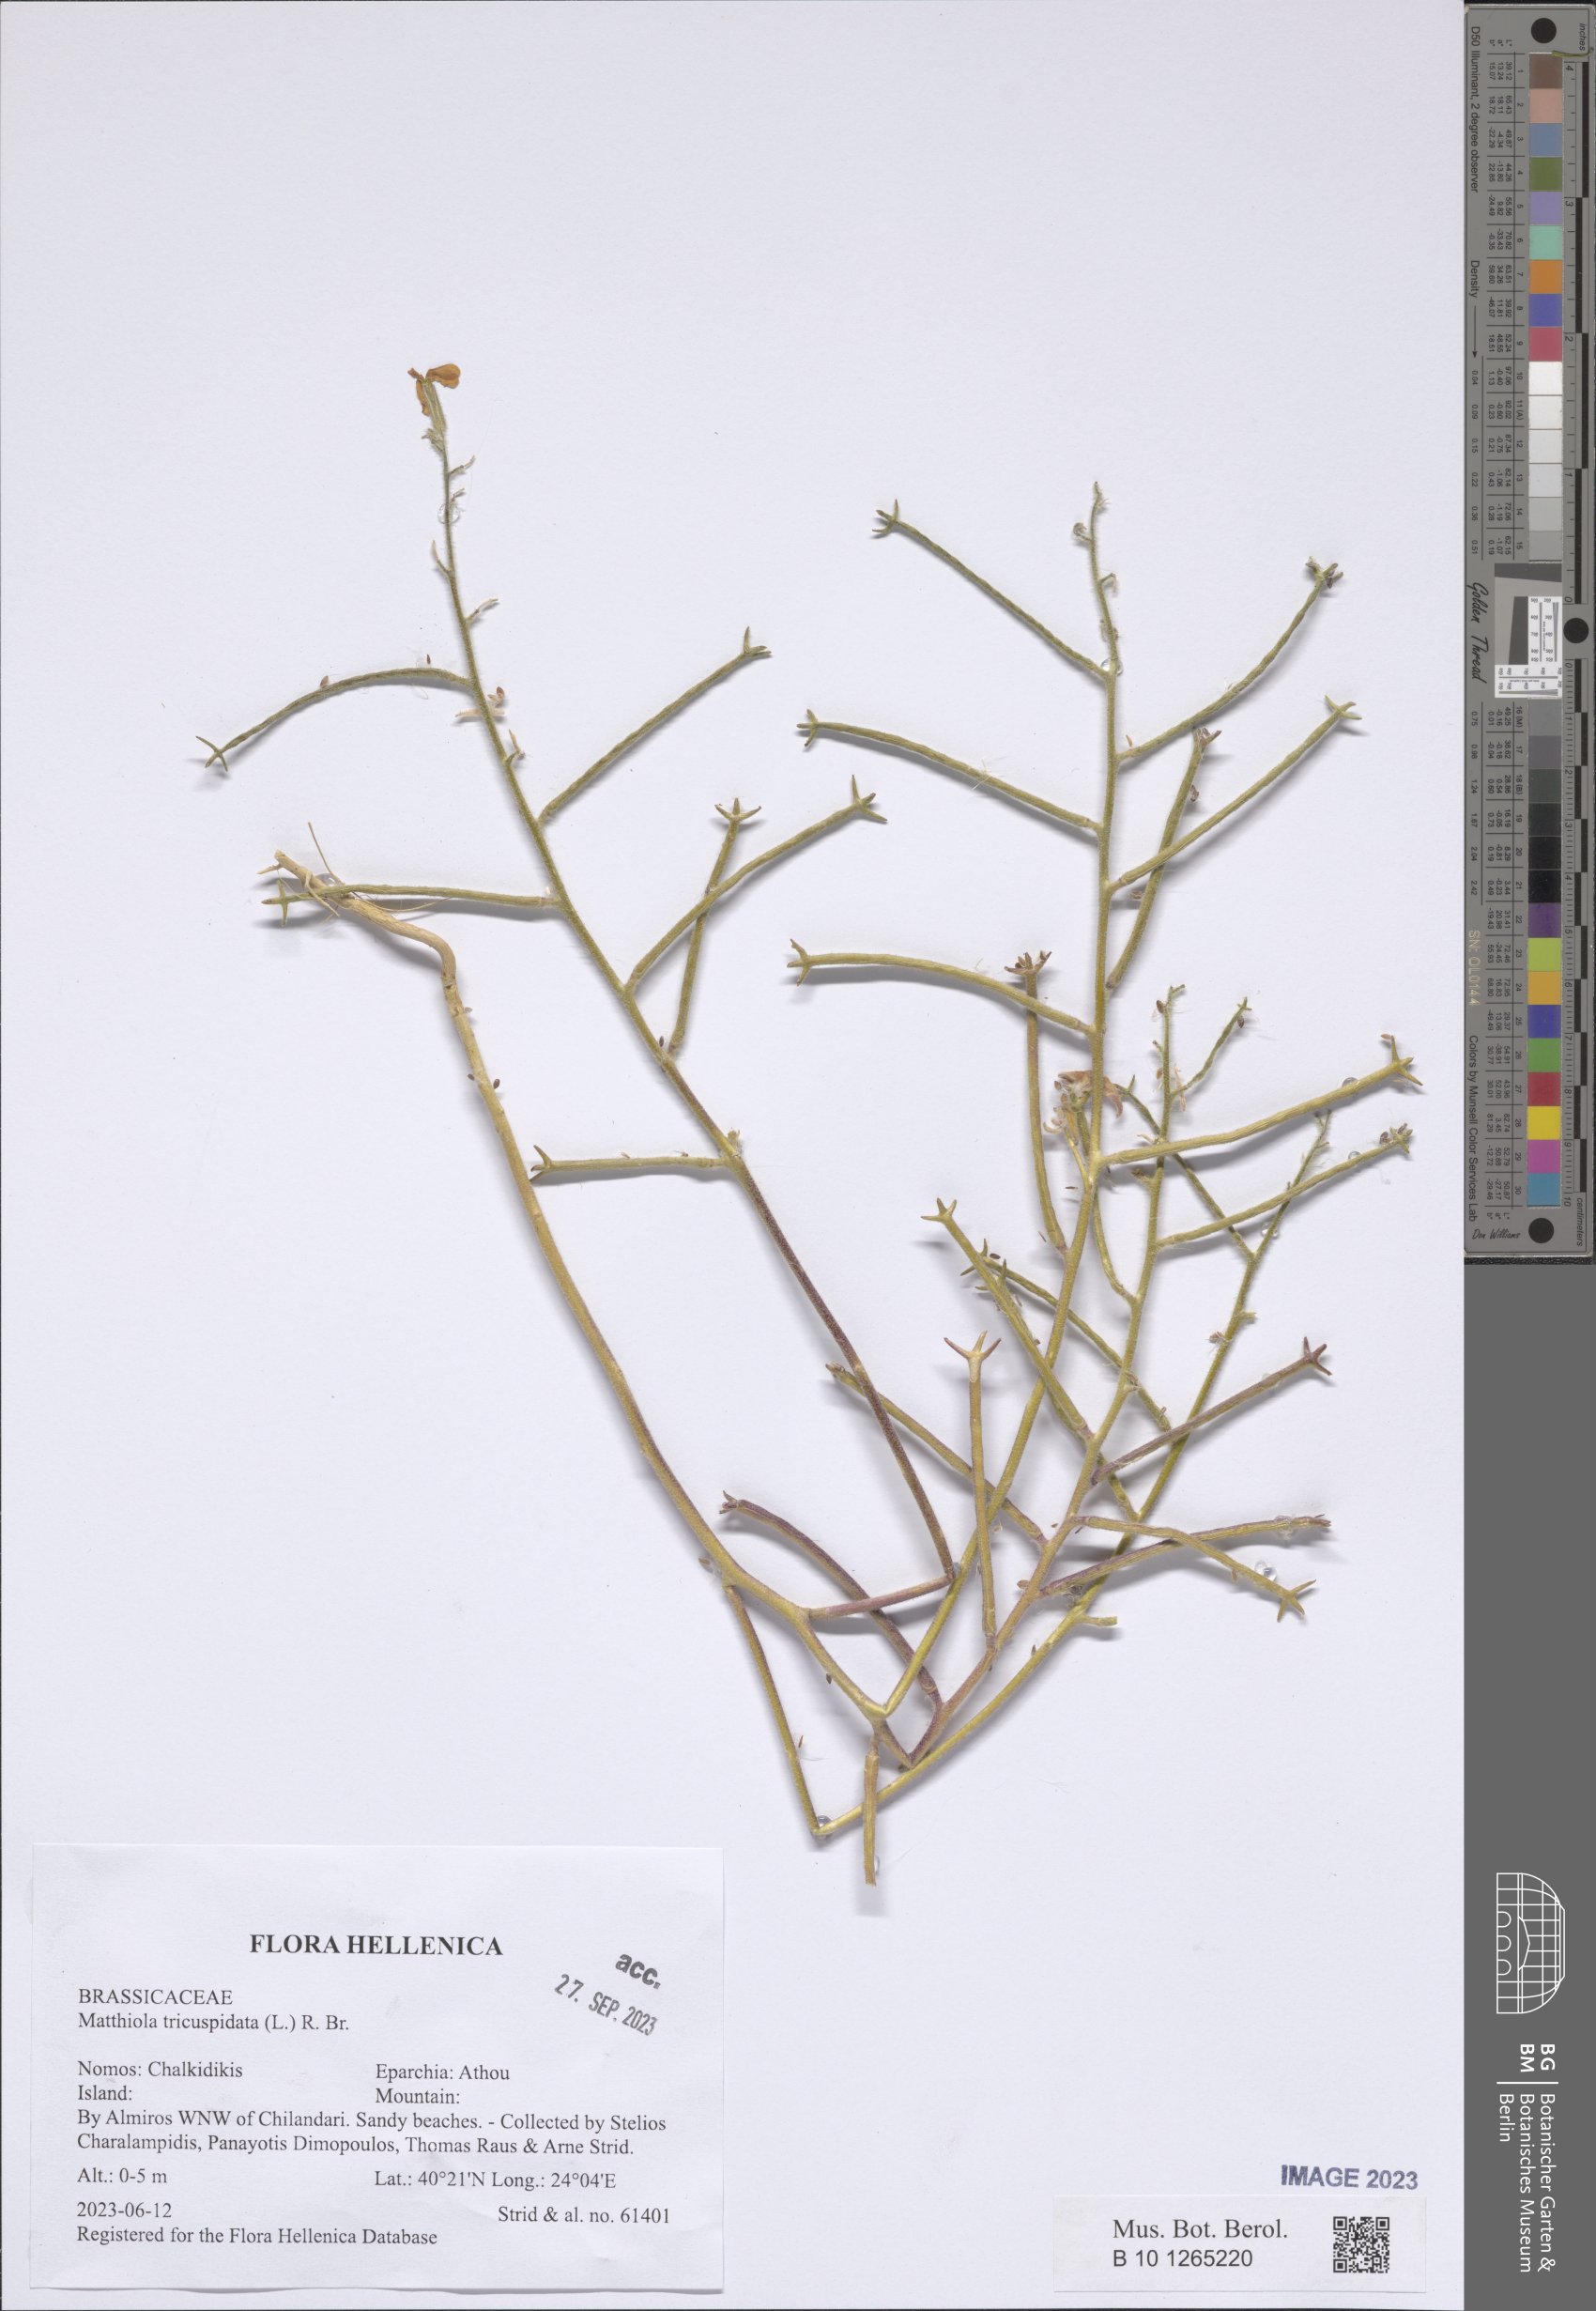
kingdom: Plantae
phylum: Tracheophyta
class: Magnoliopsida
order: Brassicales
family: Brassicaceae
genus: Matthiola
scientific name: Matthiola tricuspidata
